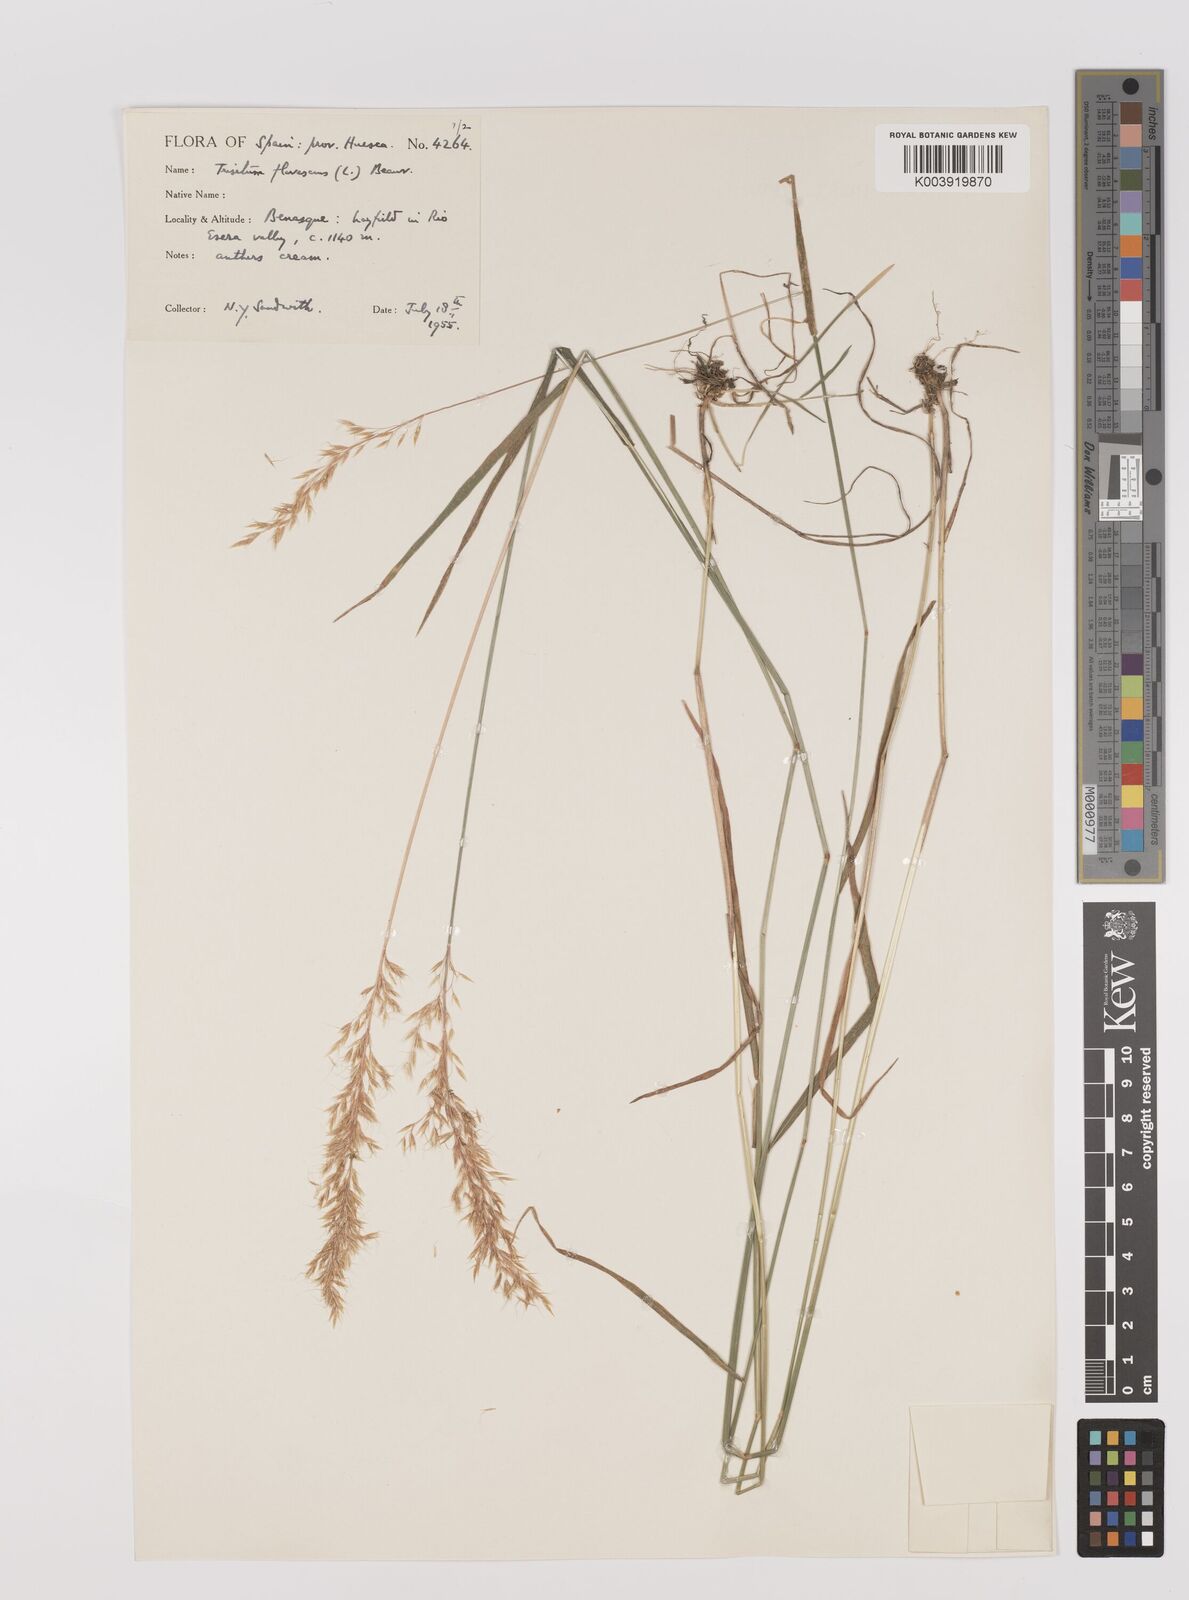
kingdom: Plantae
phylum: Tracheophyta
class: Liliopsida
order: Poales
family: Poaceae
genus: Trisetum
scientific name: Trisetum flavescens
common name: Yellow oat-grass
